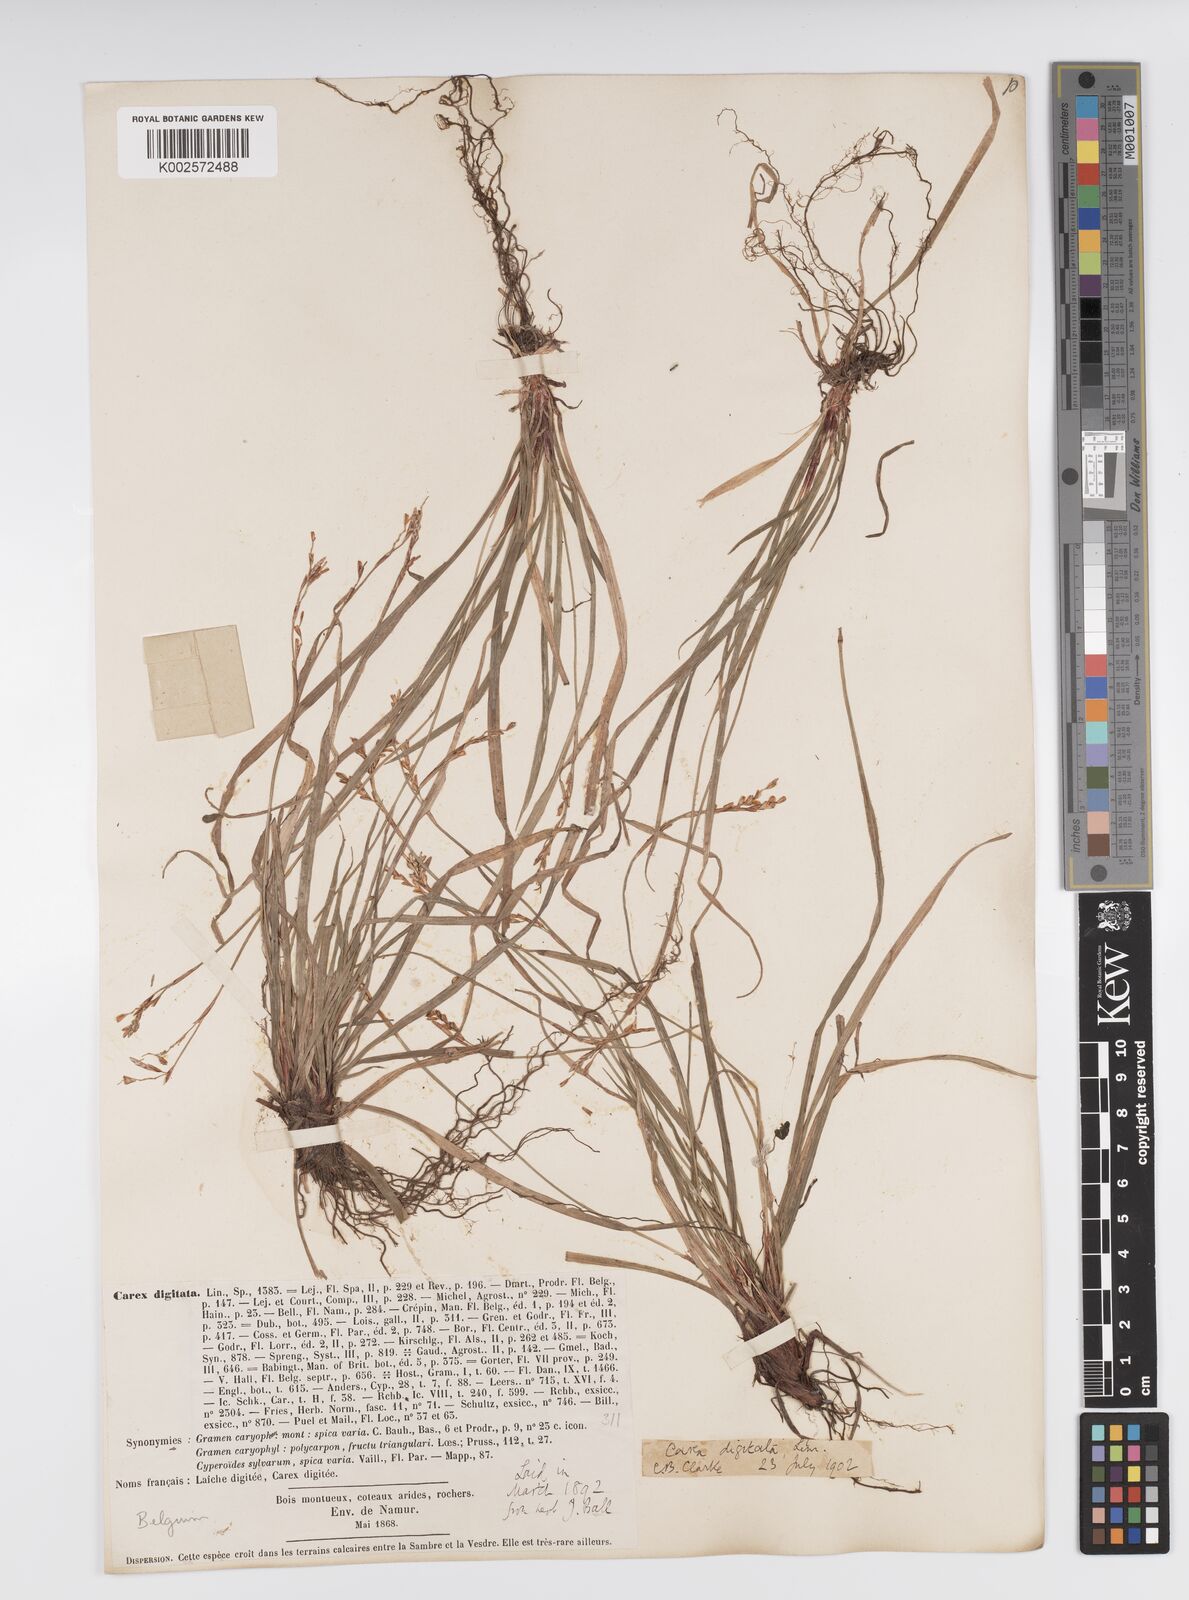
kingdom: Plantae
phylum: Tracheophyta
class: Liliopsida
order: Poales
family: Cyperaceae
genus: Carex
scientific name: Carex digitata
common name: Fingered sedge
